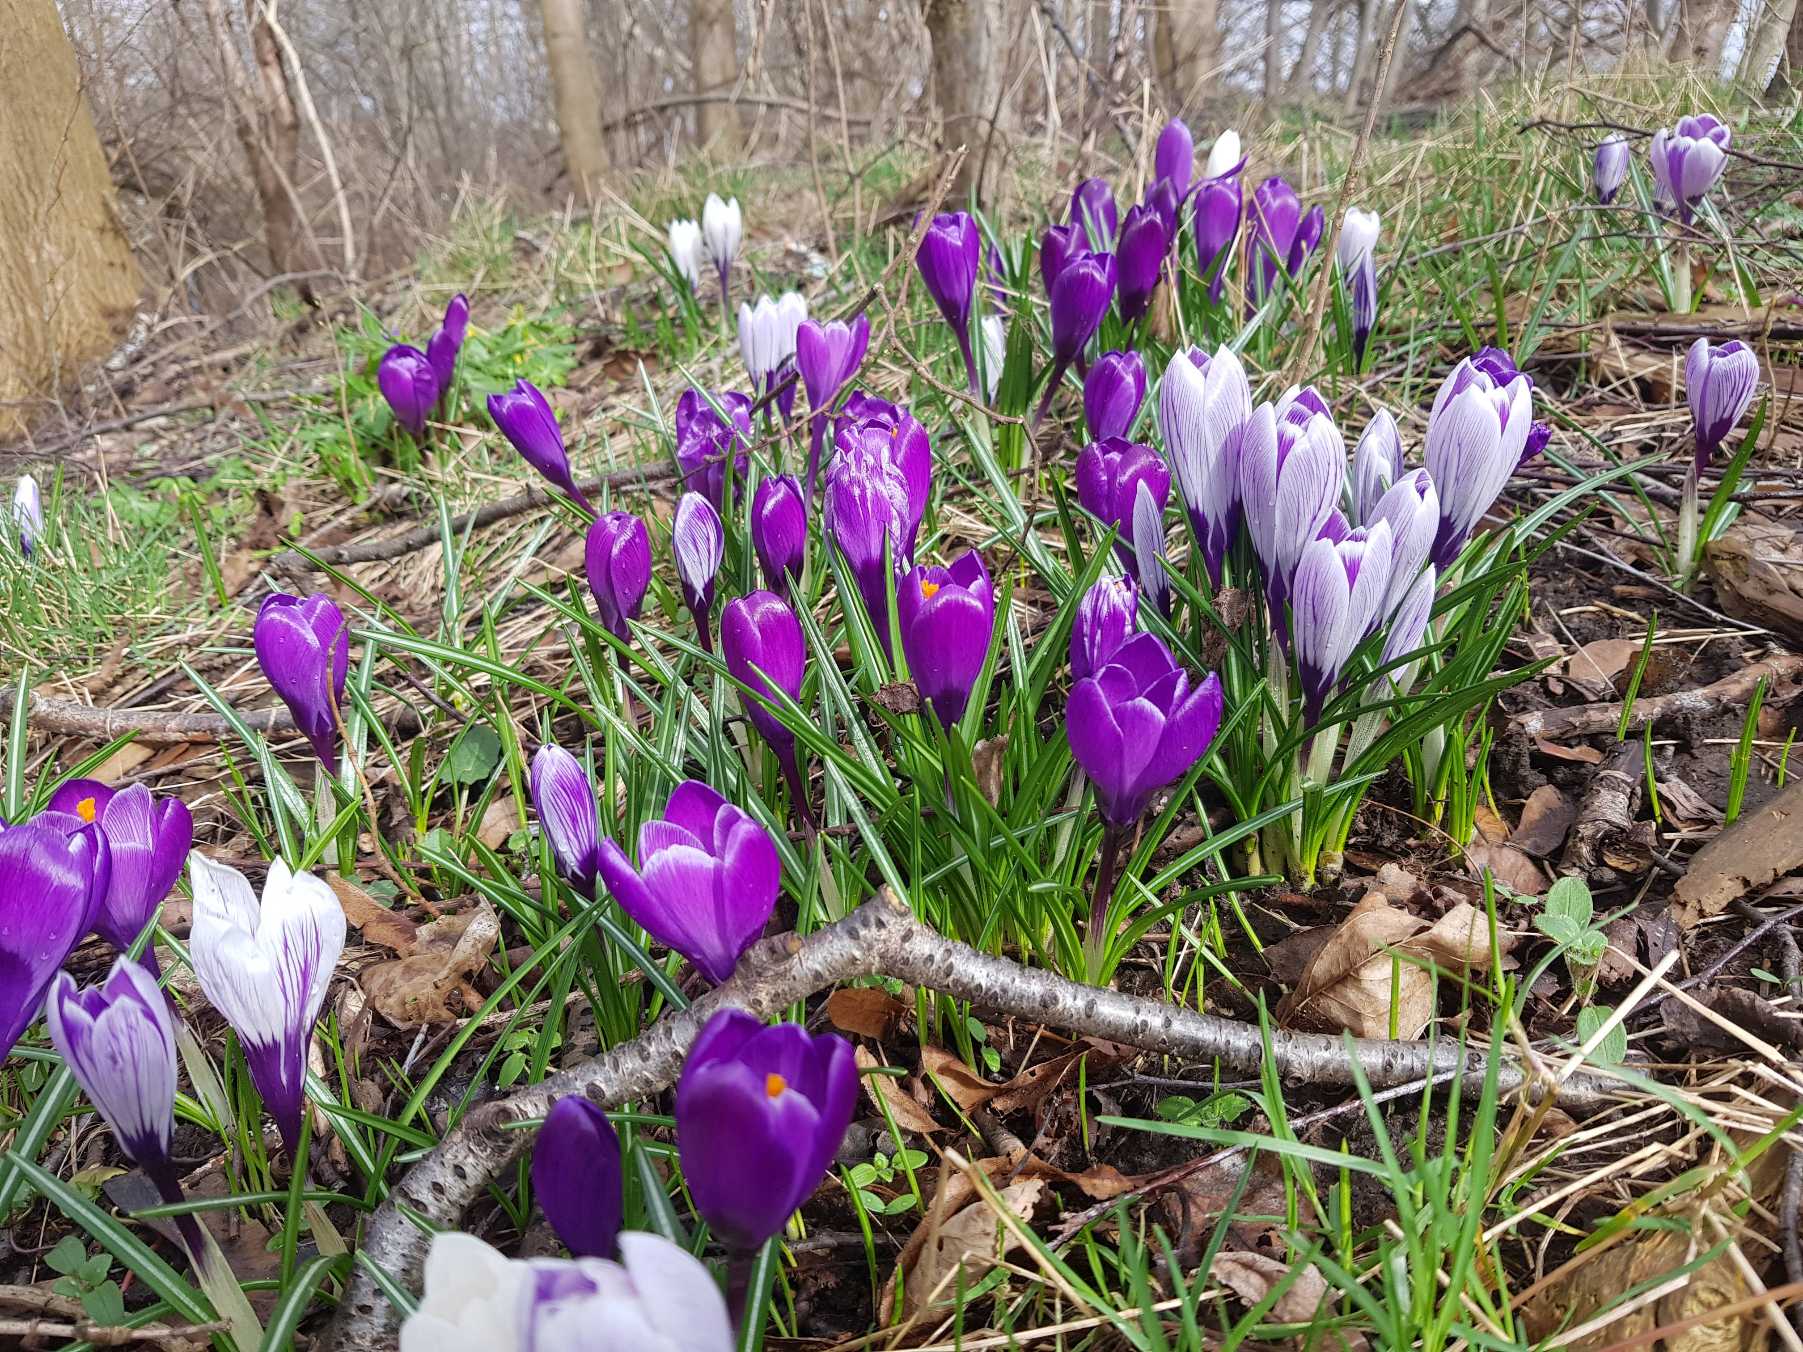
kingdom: Plantae
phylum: Tracheophyta
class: Liliopsida
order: Asparagales
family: Iridaceae
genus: Crocus
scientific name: Crocus vernus
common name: Vår-krokus
